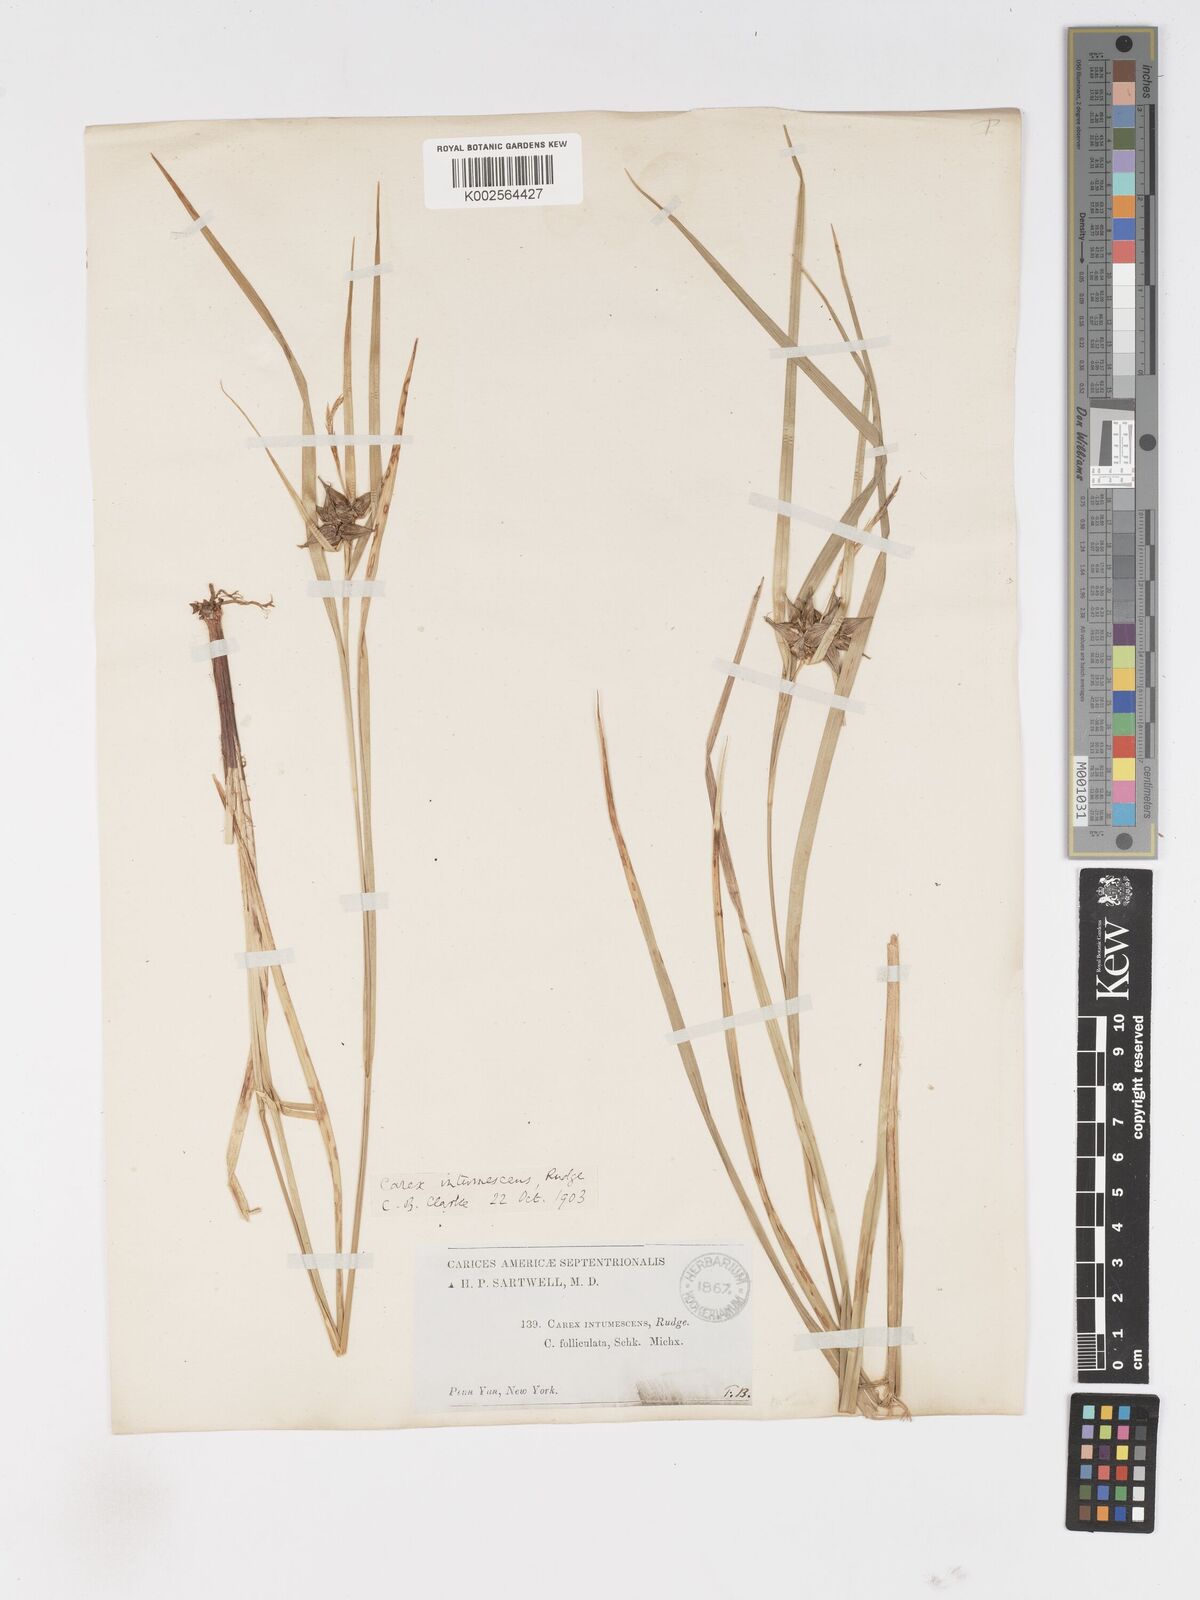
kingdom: Plantae
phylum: Tracheophyta
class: Liliopsida
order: Poales
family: Cyperaceae
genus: Carex
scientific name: Carex intumescens
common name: Greater bladder sedge
